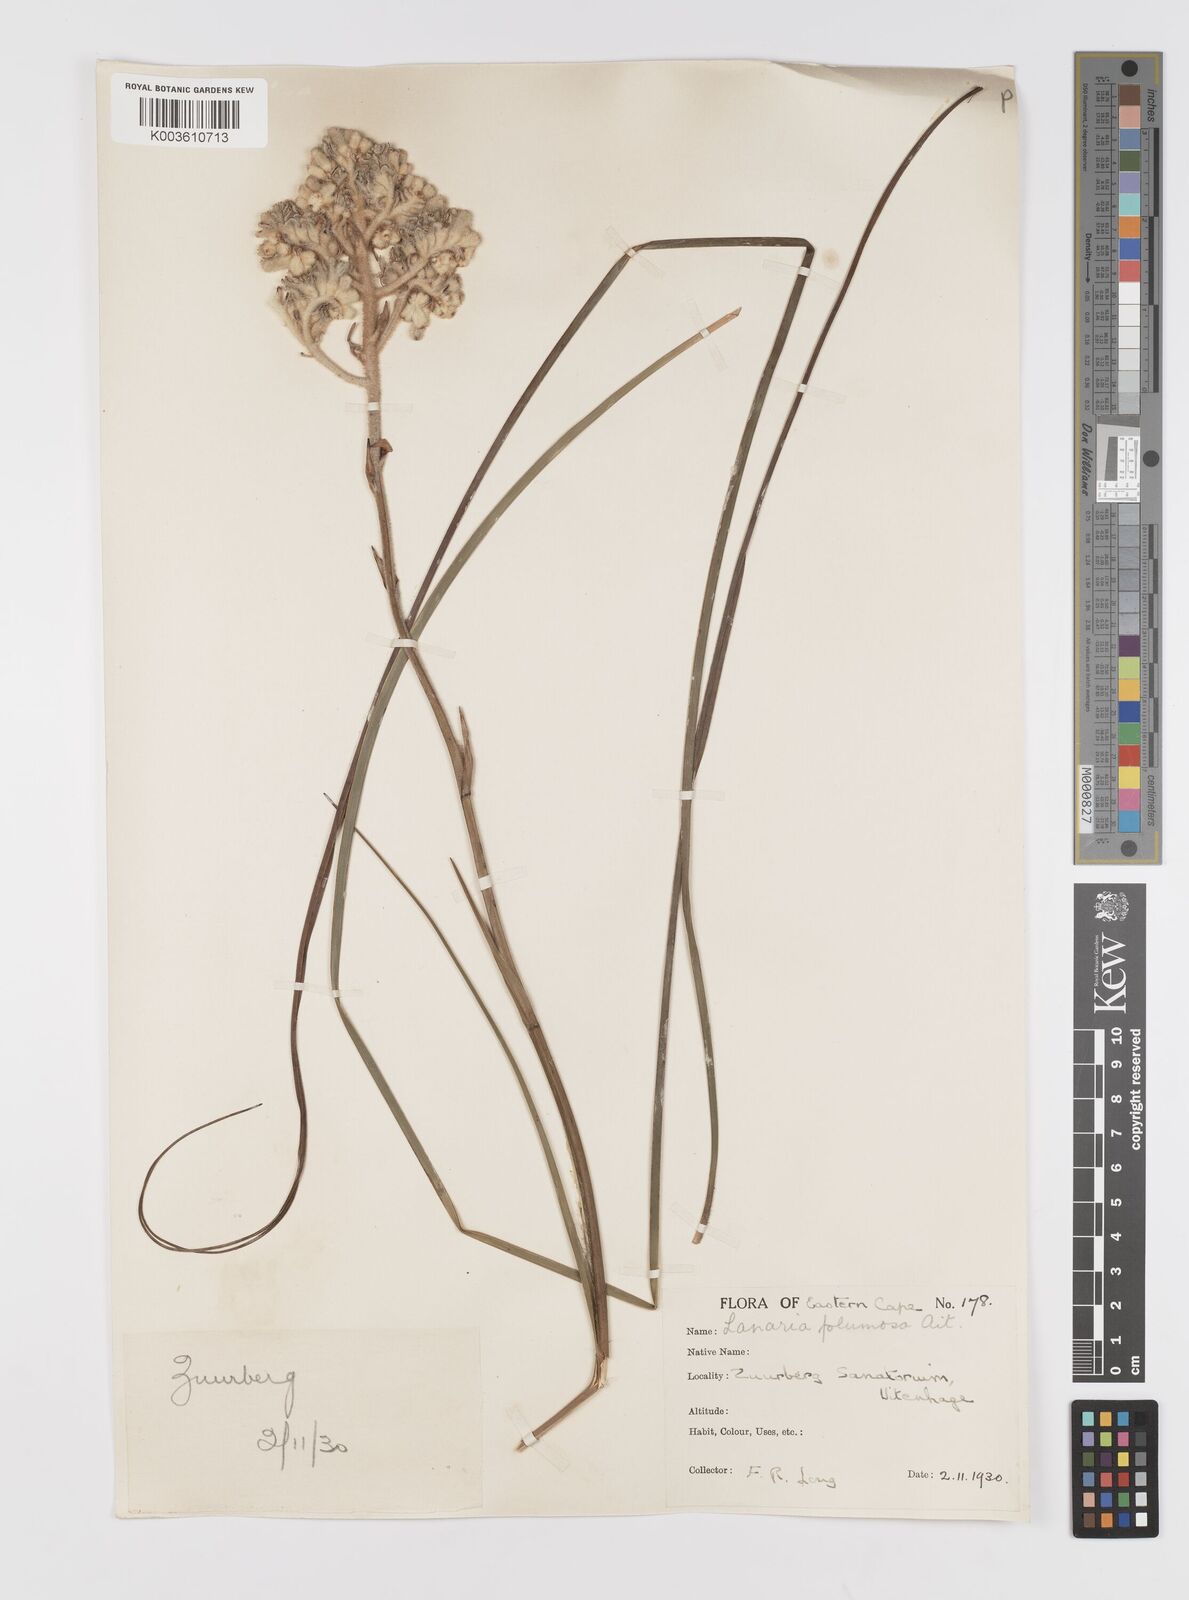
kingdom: Plantae
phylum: Tracheophyta
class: Liliopsida
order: Asparagales
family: Lanariaceae
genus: Lanaria
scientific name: Lanaria lanata
